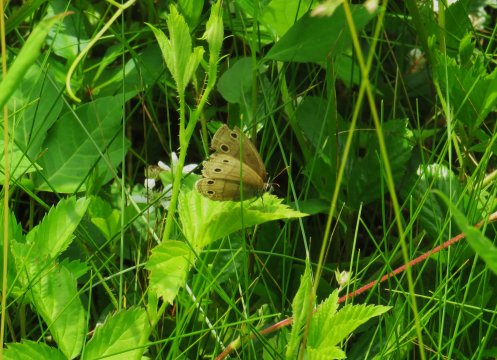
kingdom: Animalia
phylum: Arthropoda
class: Insecta
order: Lepidoptera
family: Nymphalidae
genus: Euptychia
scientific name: Euptychia cymela
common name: Little Wood Satyr
